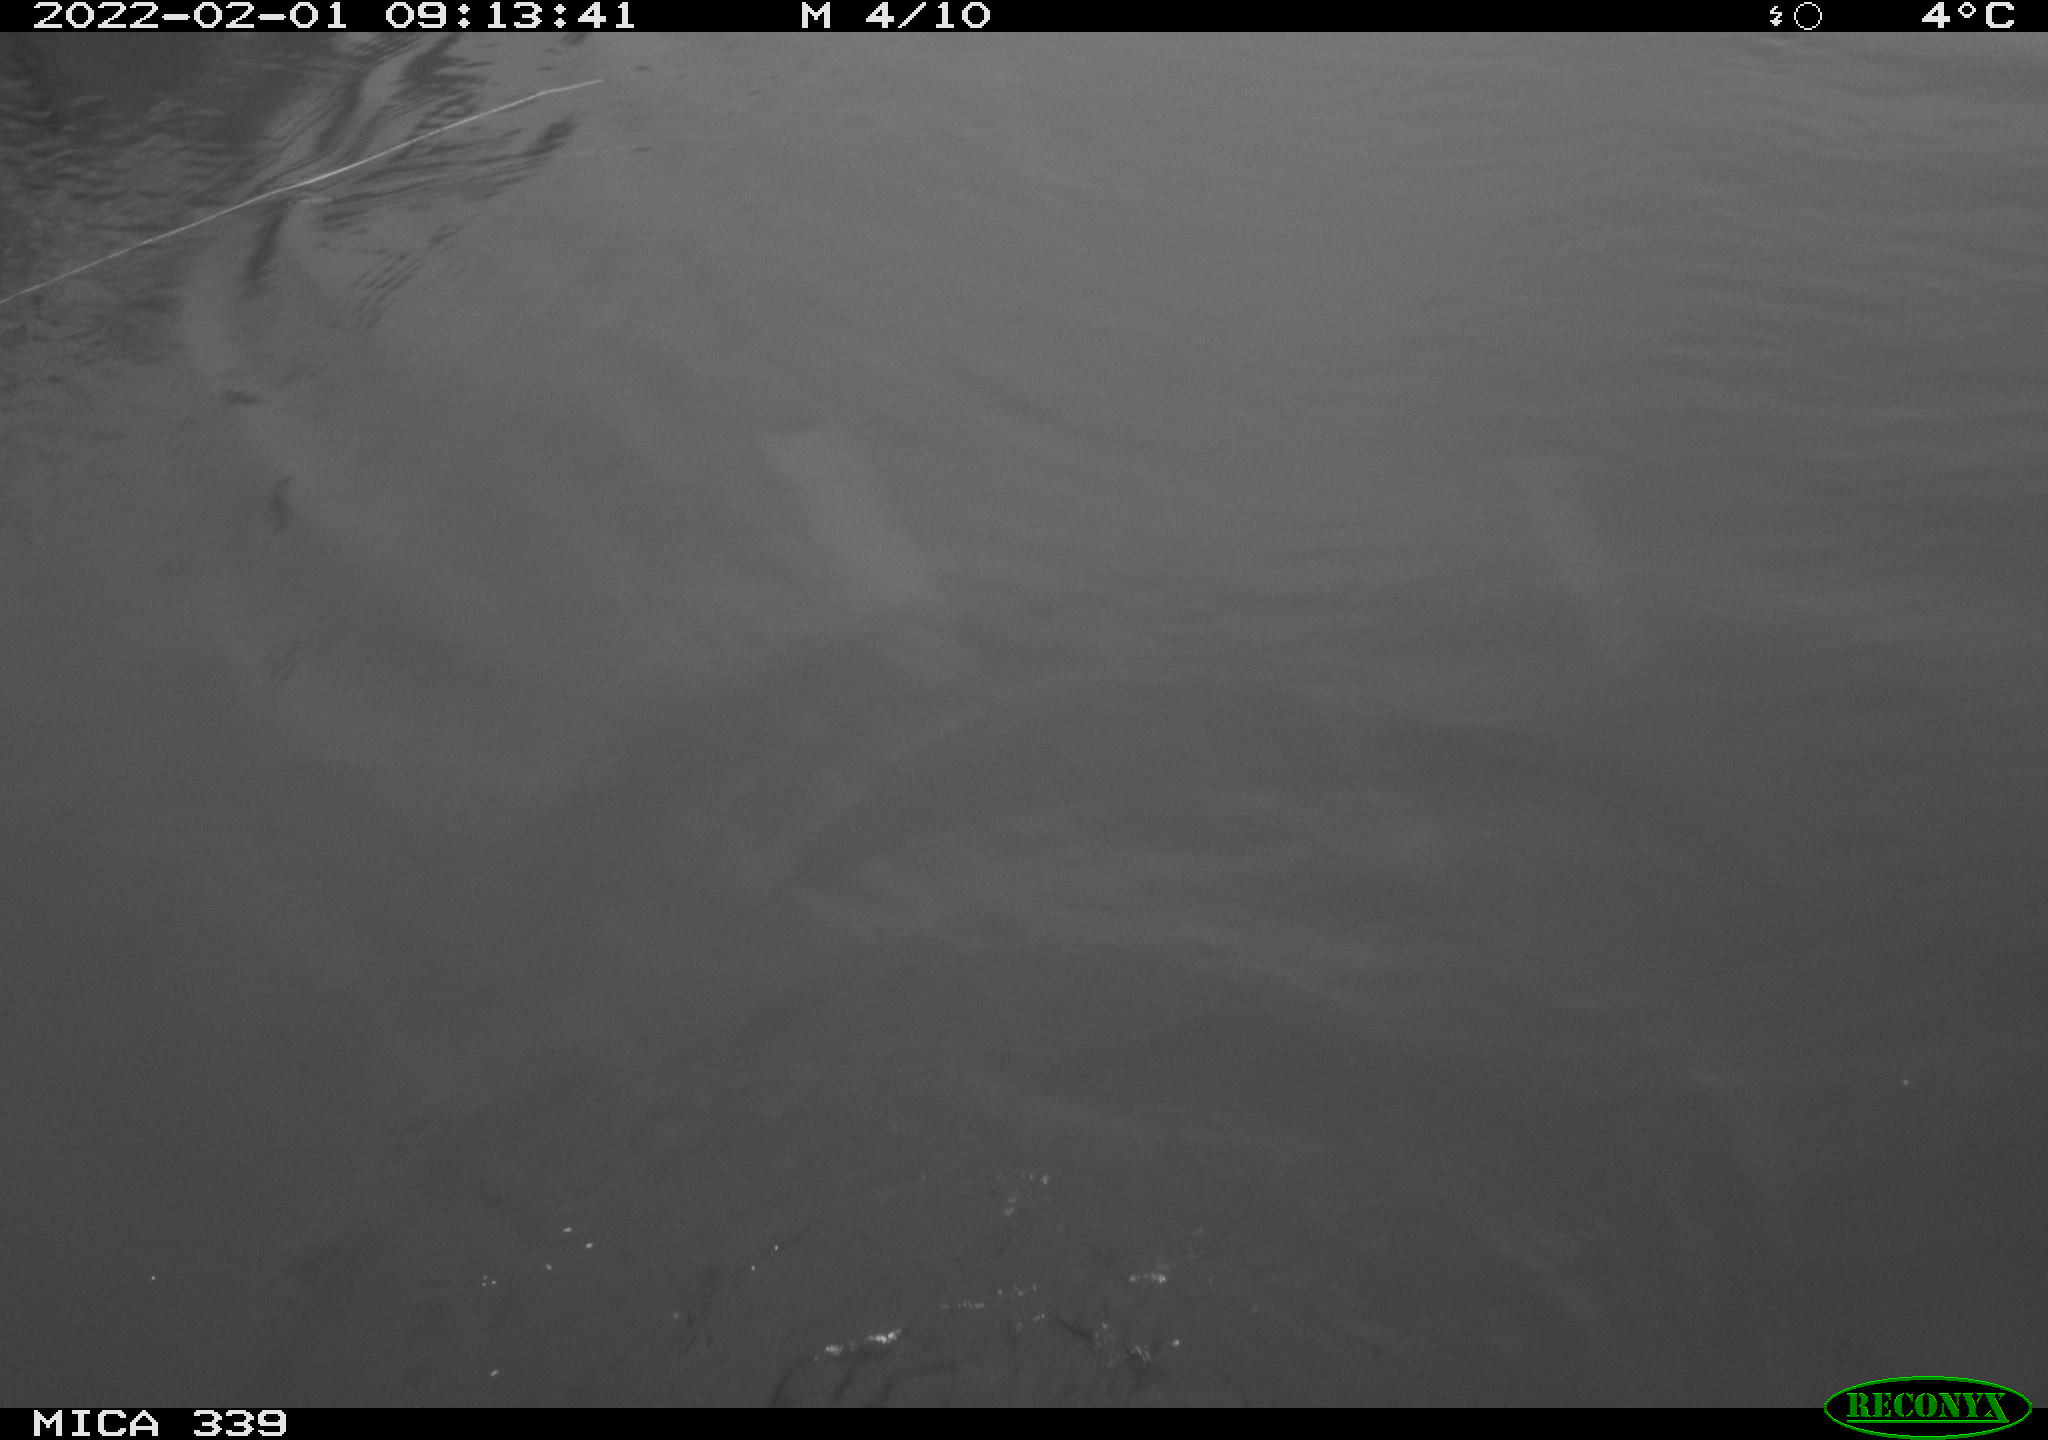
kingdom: Animalia
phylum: Chordata
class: Aves
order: Suliformes
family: Phalacrocoracidae
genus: Phalacrocorax
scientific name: Phalacrocorax carbo
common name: Great cormorant
